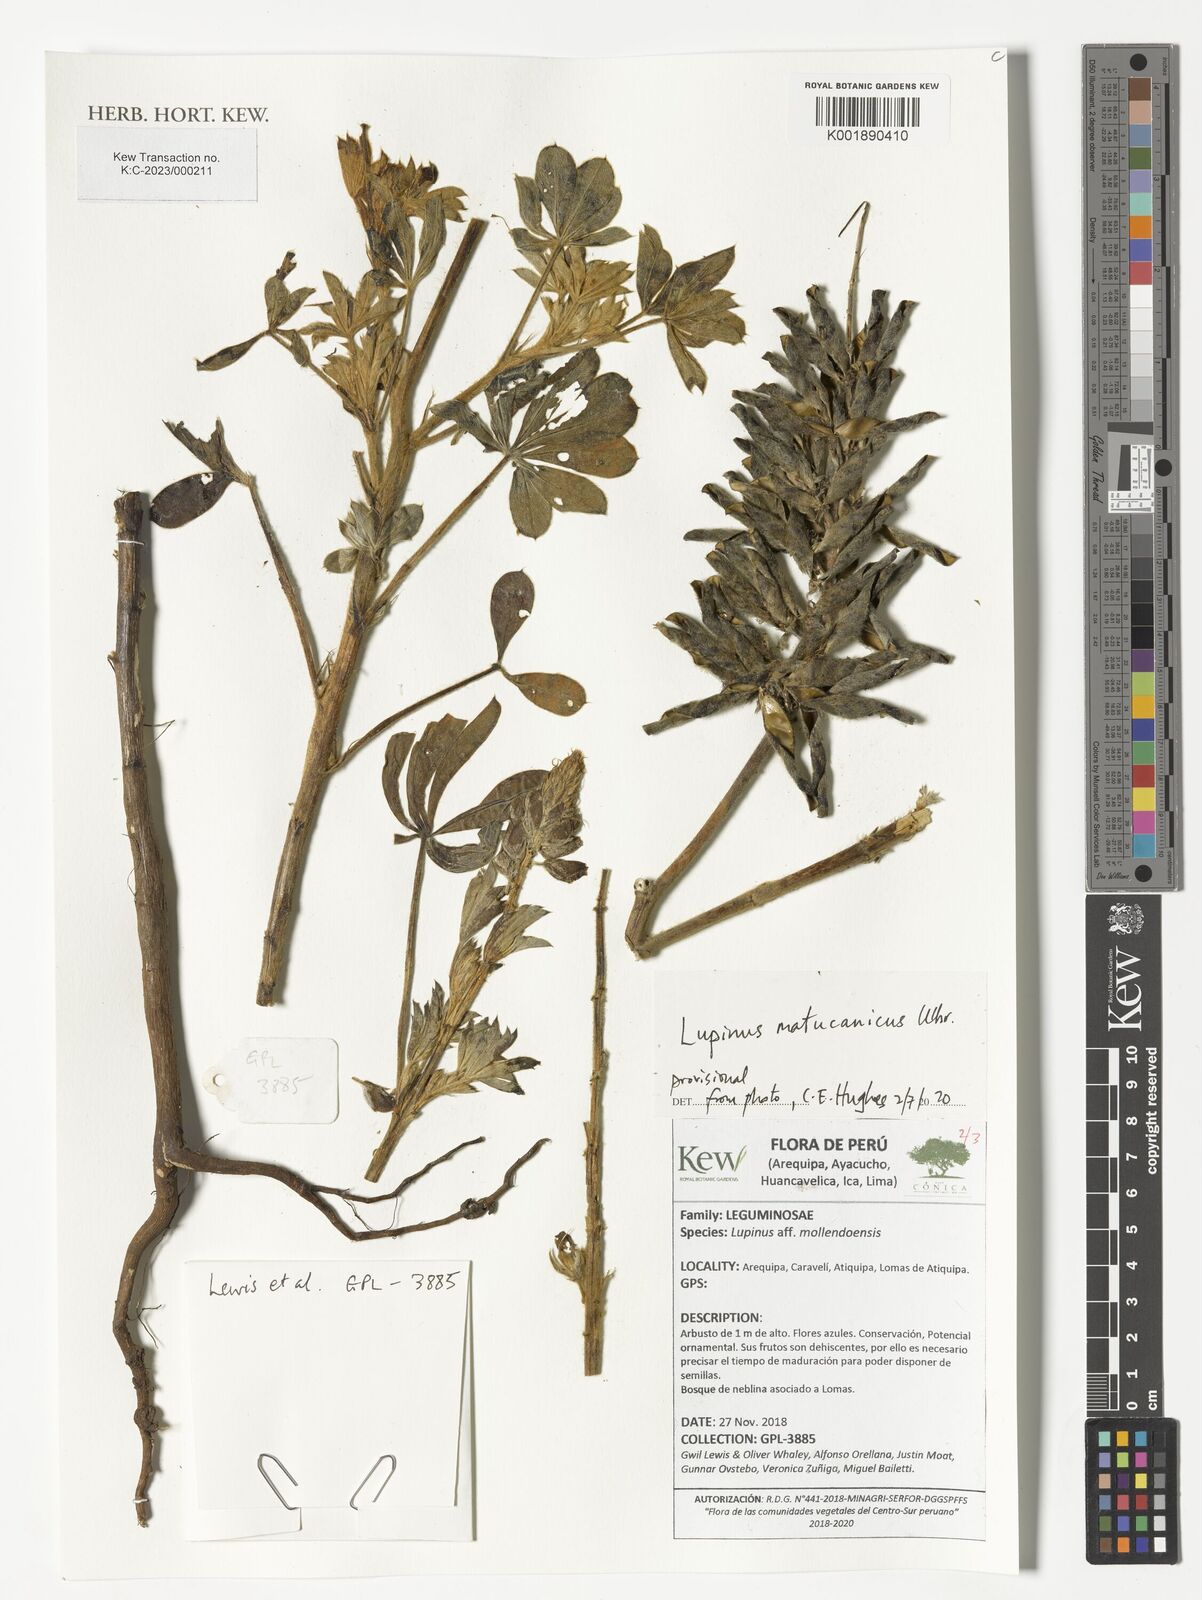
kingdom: Plantae
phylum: Tracheophyta
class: Magnoliopsida
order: Fabales
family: Fabaceae
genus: Lupinus
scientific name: Lupinus matucanicus
